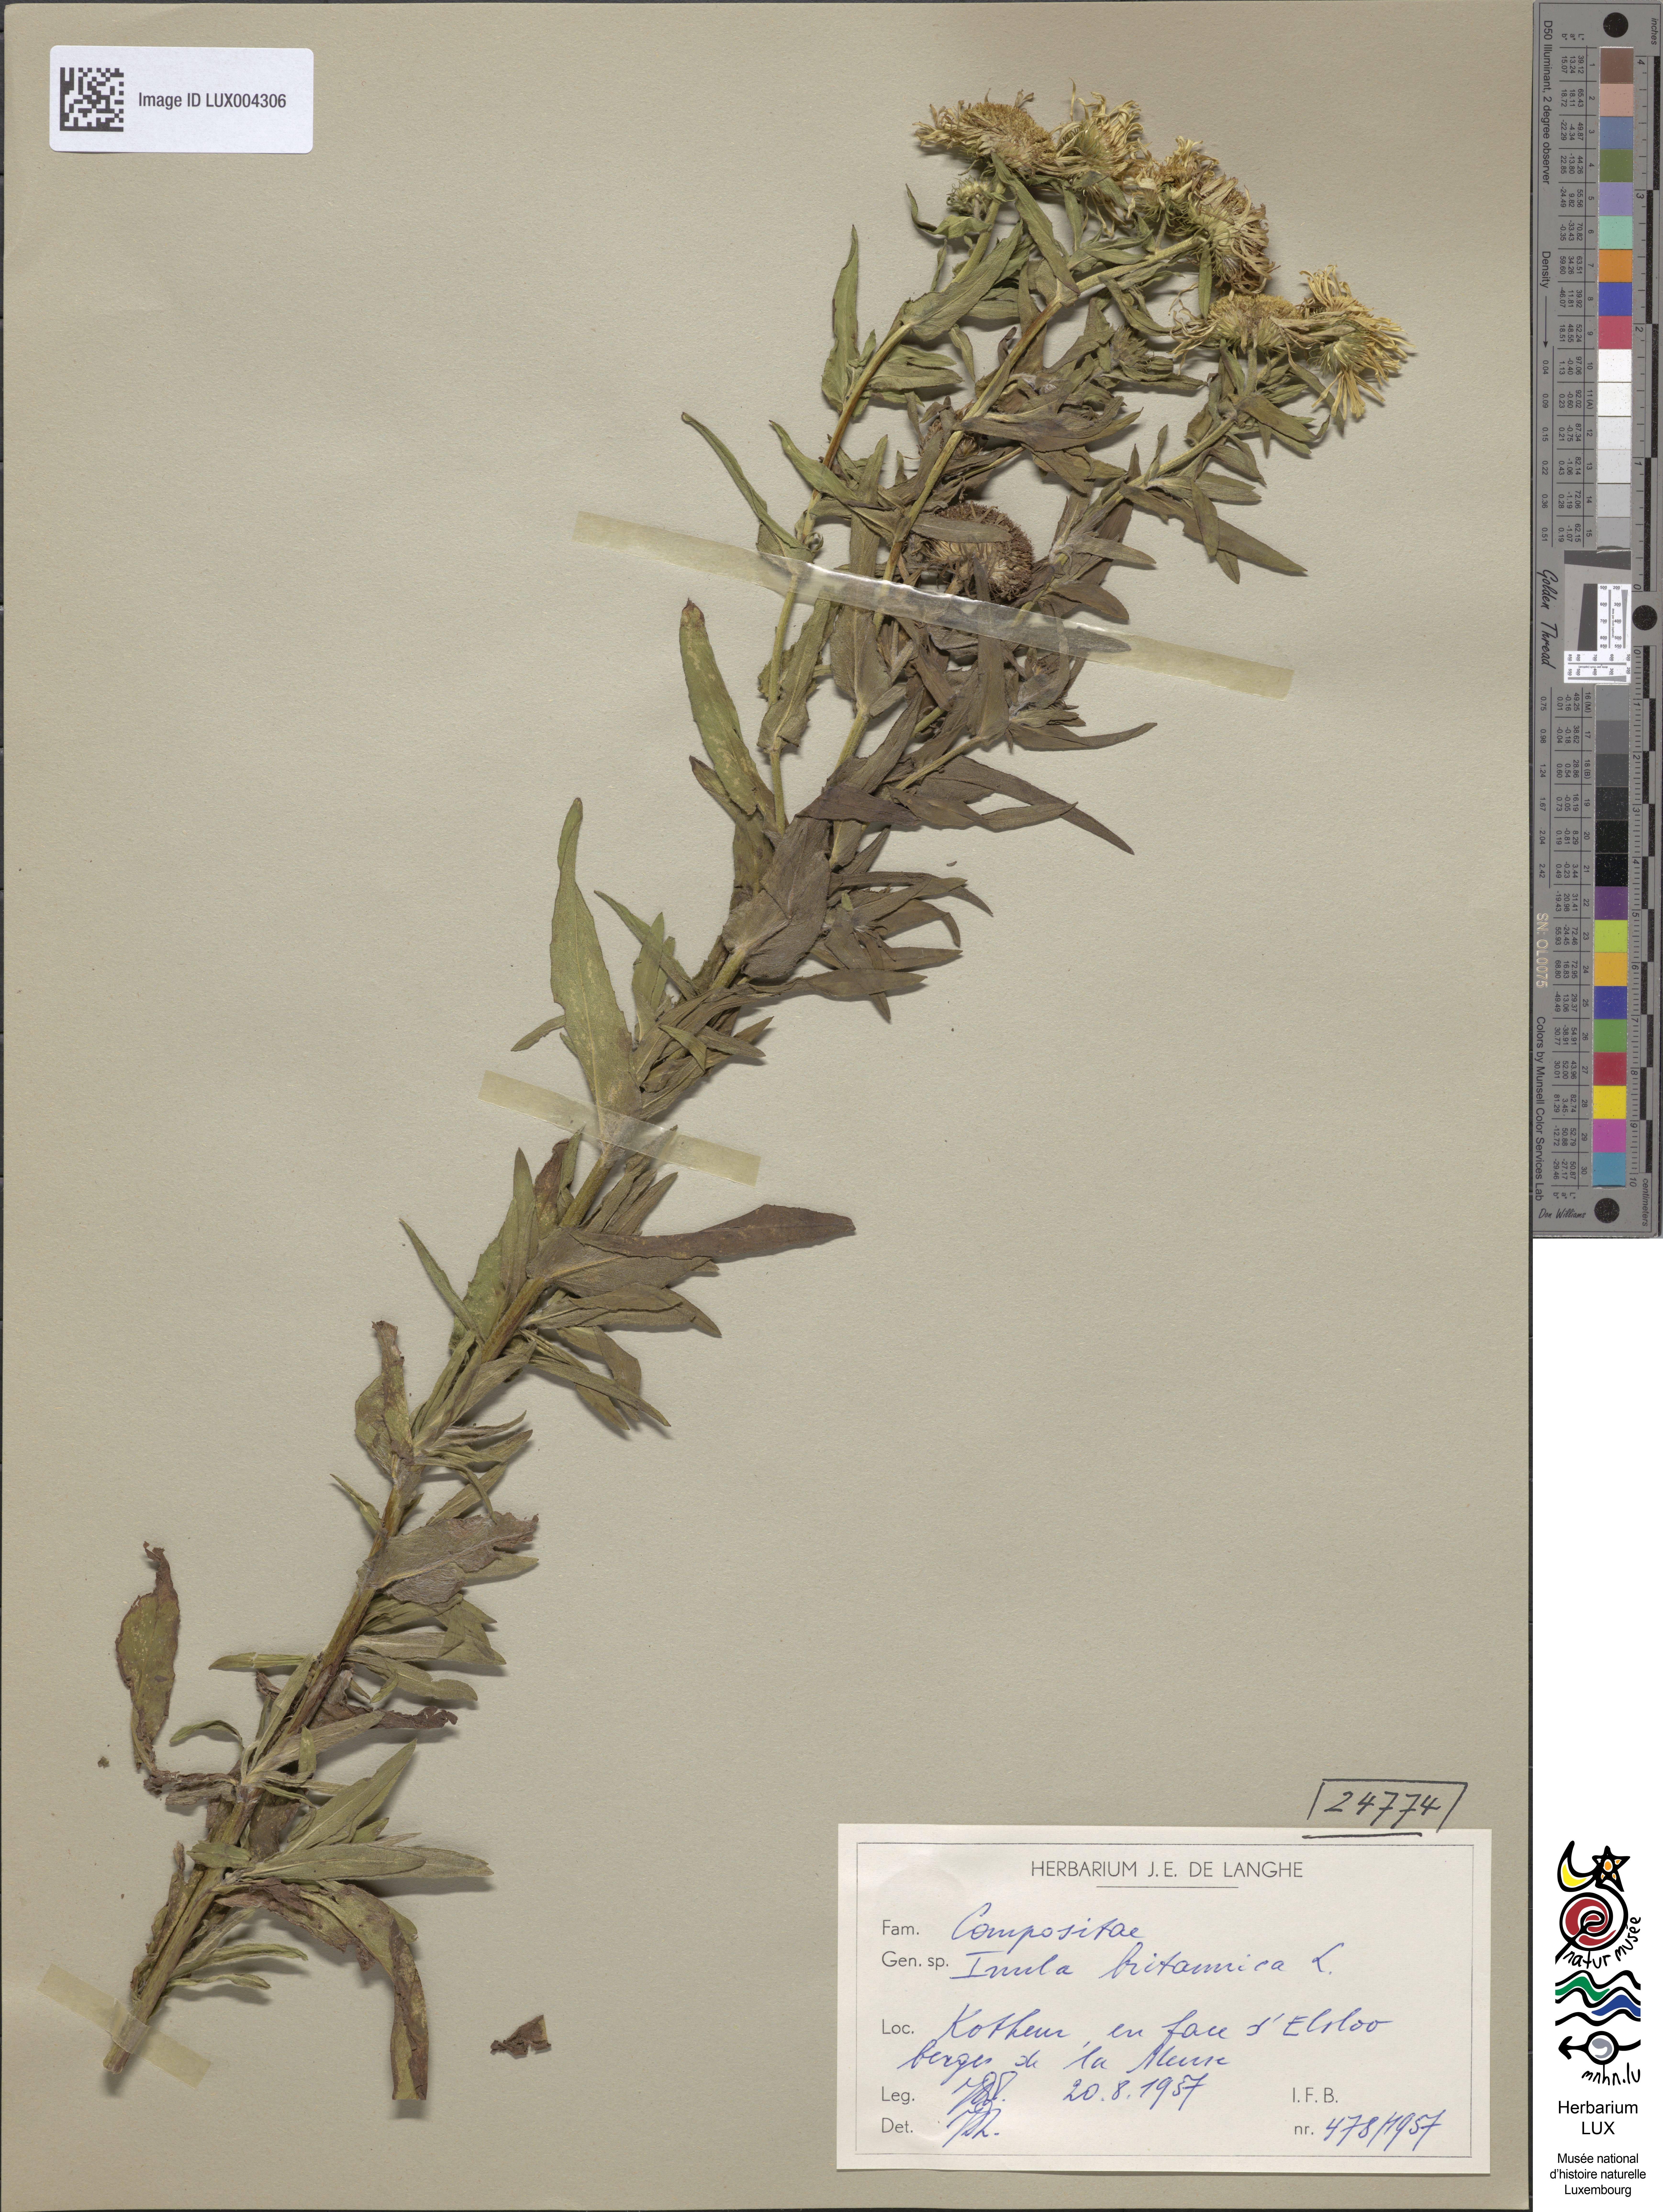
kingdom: Plantae
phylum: Tracheophyta
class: Magnoliopsida
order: Asterales
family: Asteraceae
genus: Pentanema
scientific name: Pentanema britannicum
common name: British elecampane
